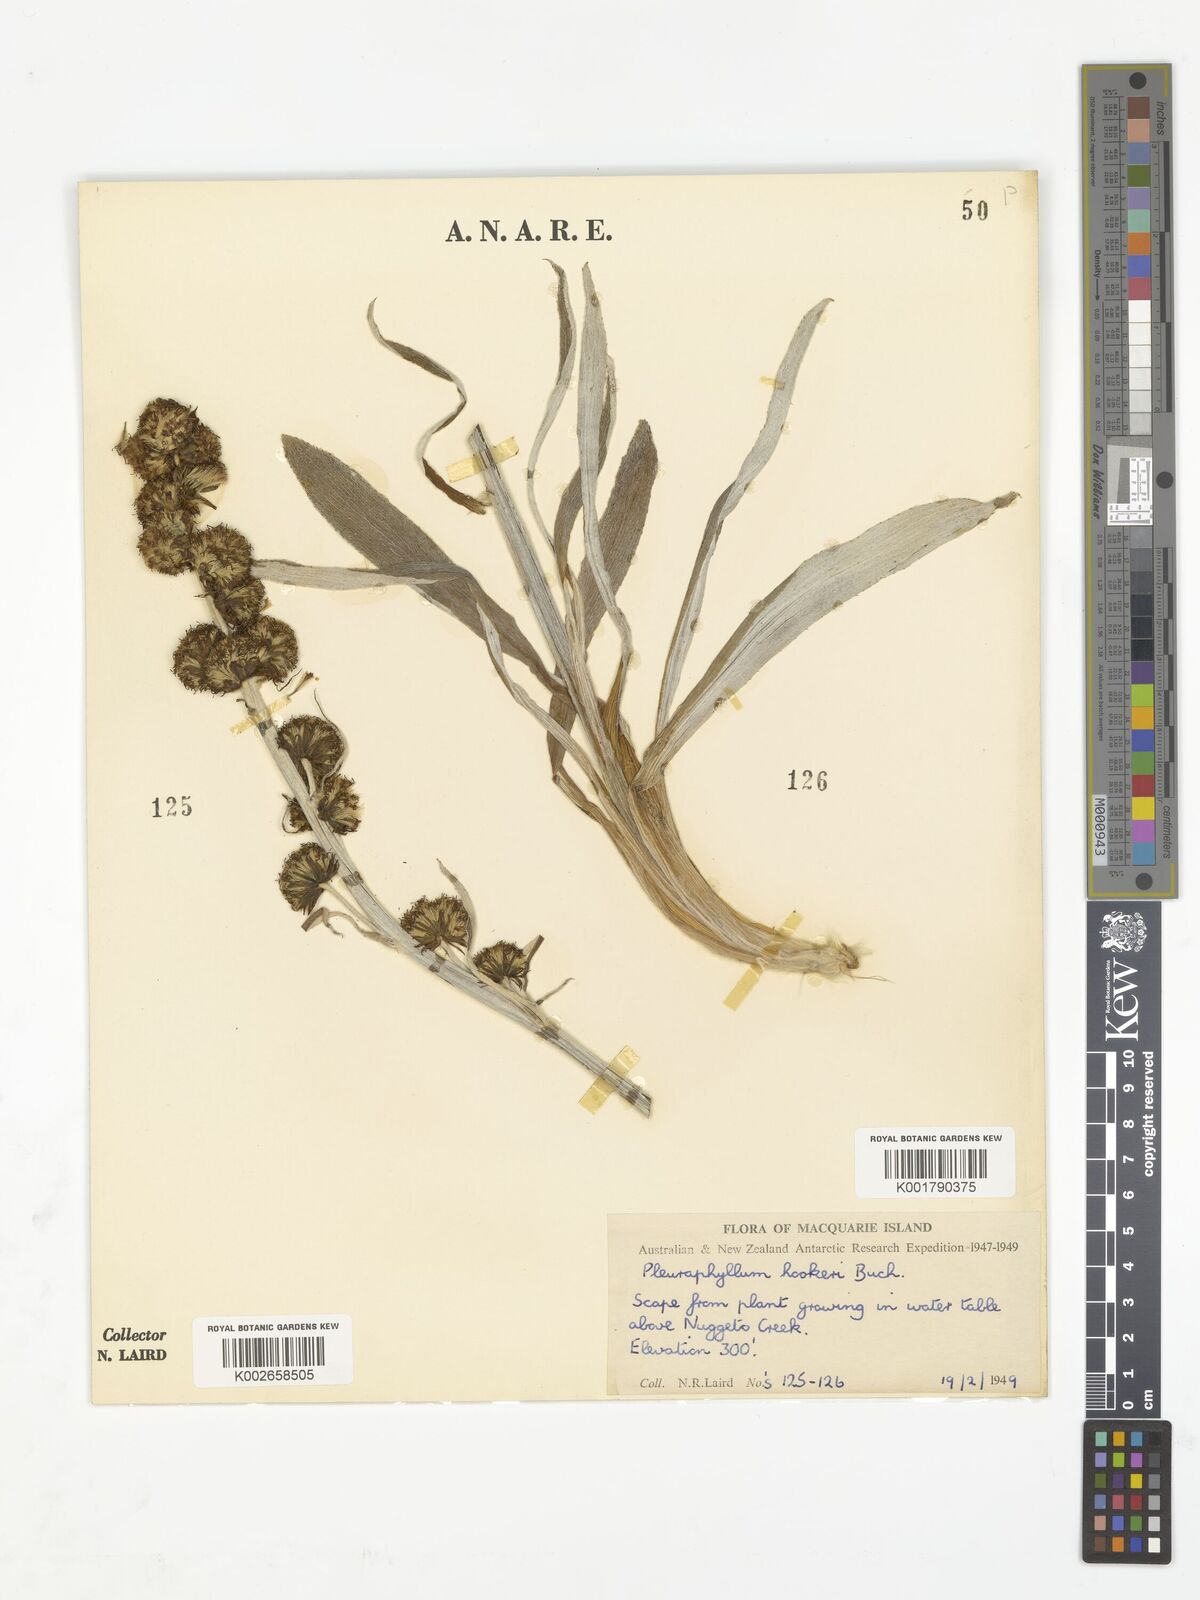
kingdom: Plantae
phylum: Tracheophyta
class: Magnoliopsida
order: Asterales
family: Asteraceae
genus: Pleurophyllum
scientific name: Pleurophyllum hookeri
